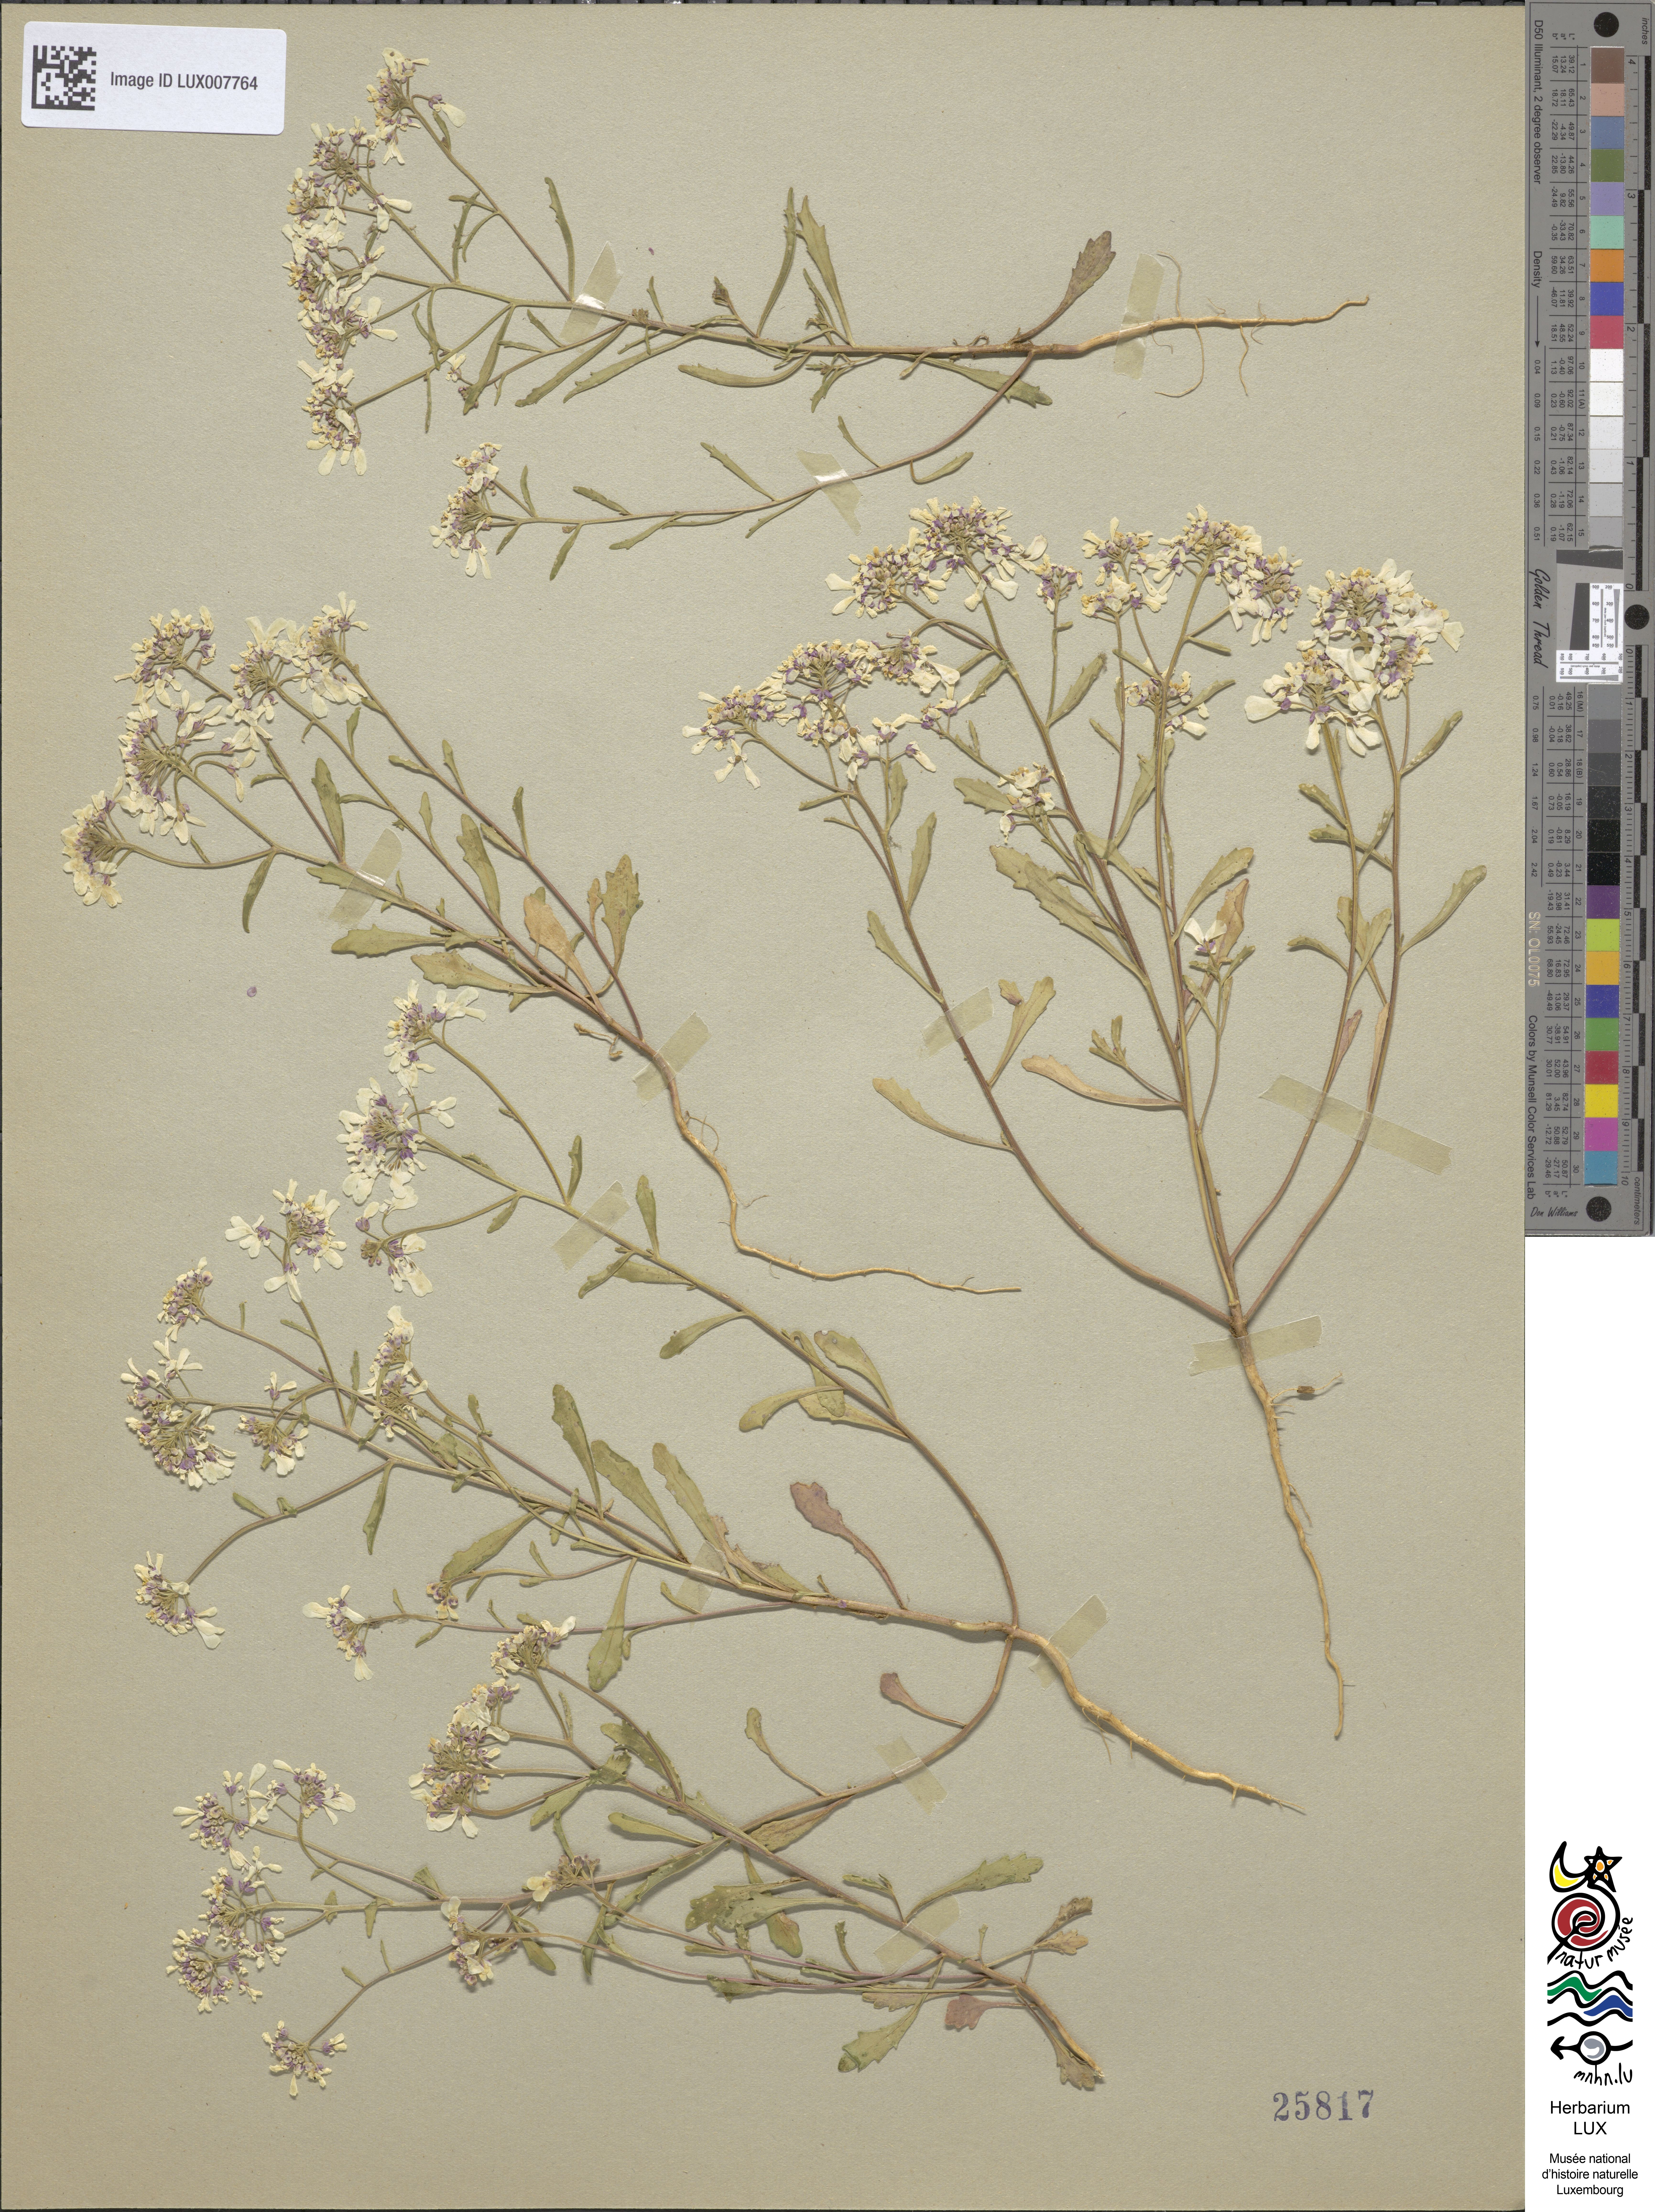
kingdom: Plantae
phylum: Tracheophyta
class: Magnoliopsida
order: Brassicales
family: Brassicaceae
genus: Iberis
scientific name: Iberis amara
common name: Annual candytuft
